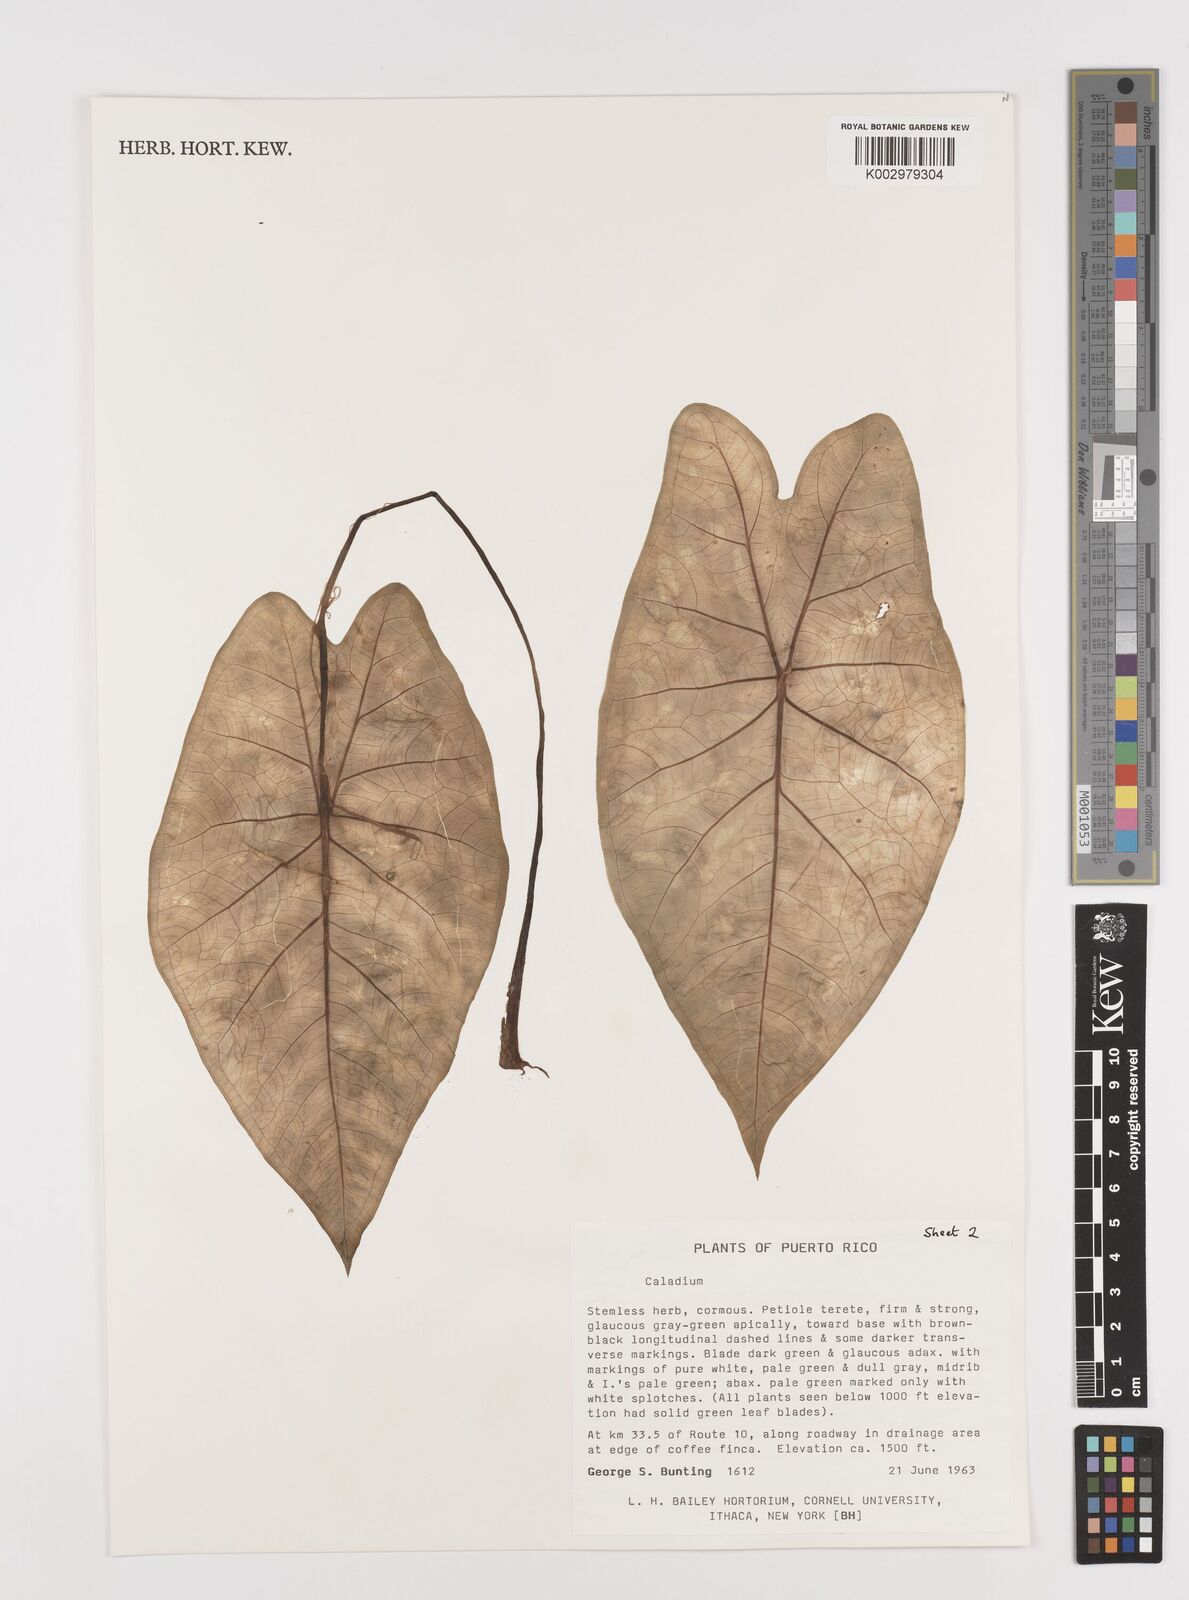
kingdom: Plantae
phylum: Tracheophyta
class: Liliopsida
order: Alismatales
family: Araceae
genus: Caladium
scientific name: Caladium bicolor
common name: Artist's pallet
